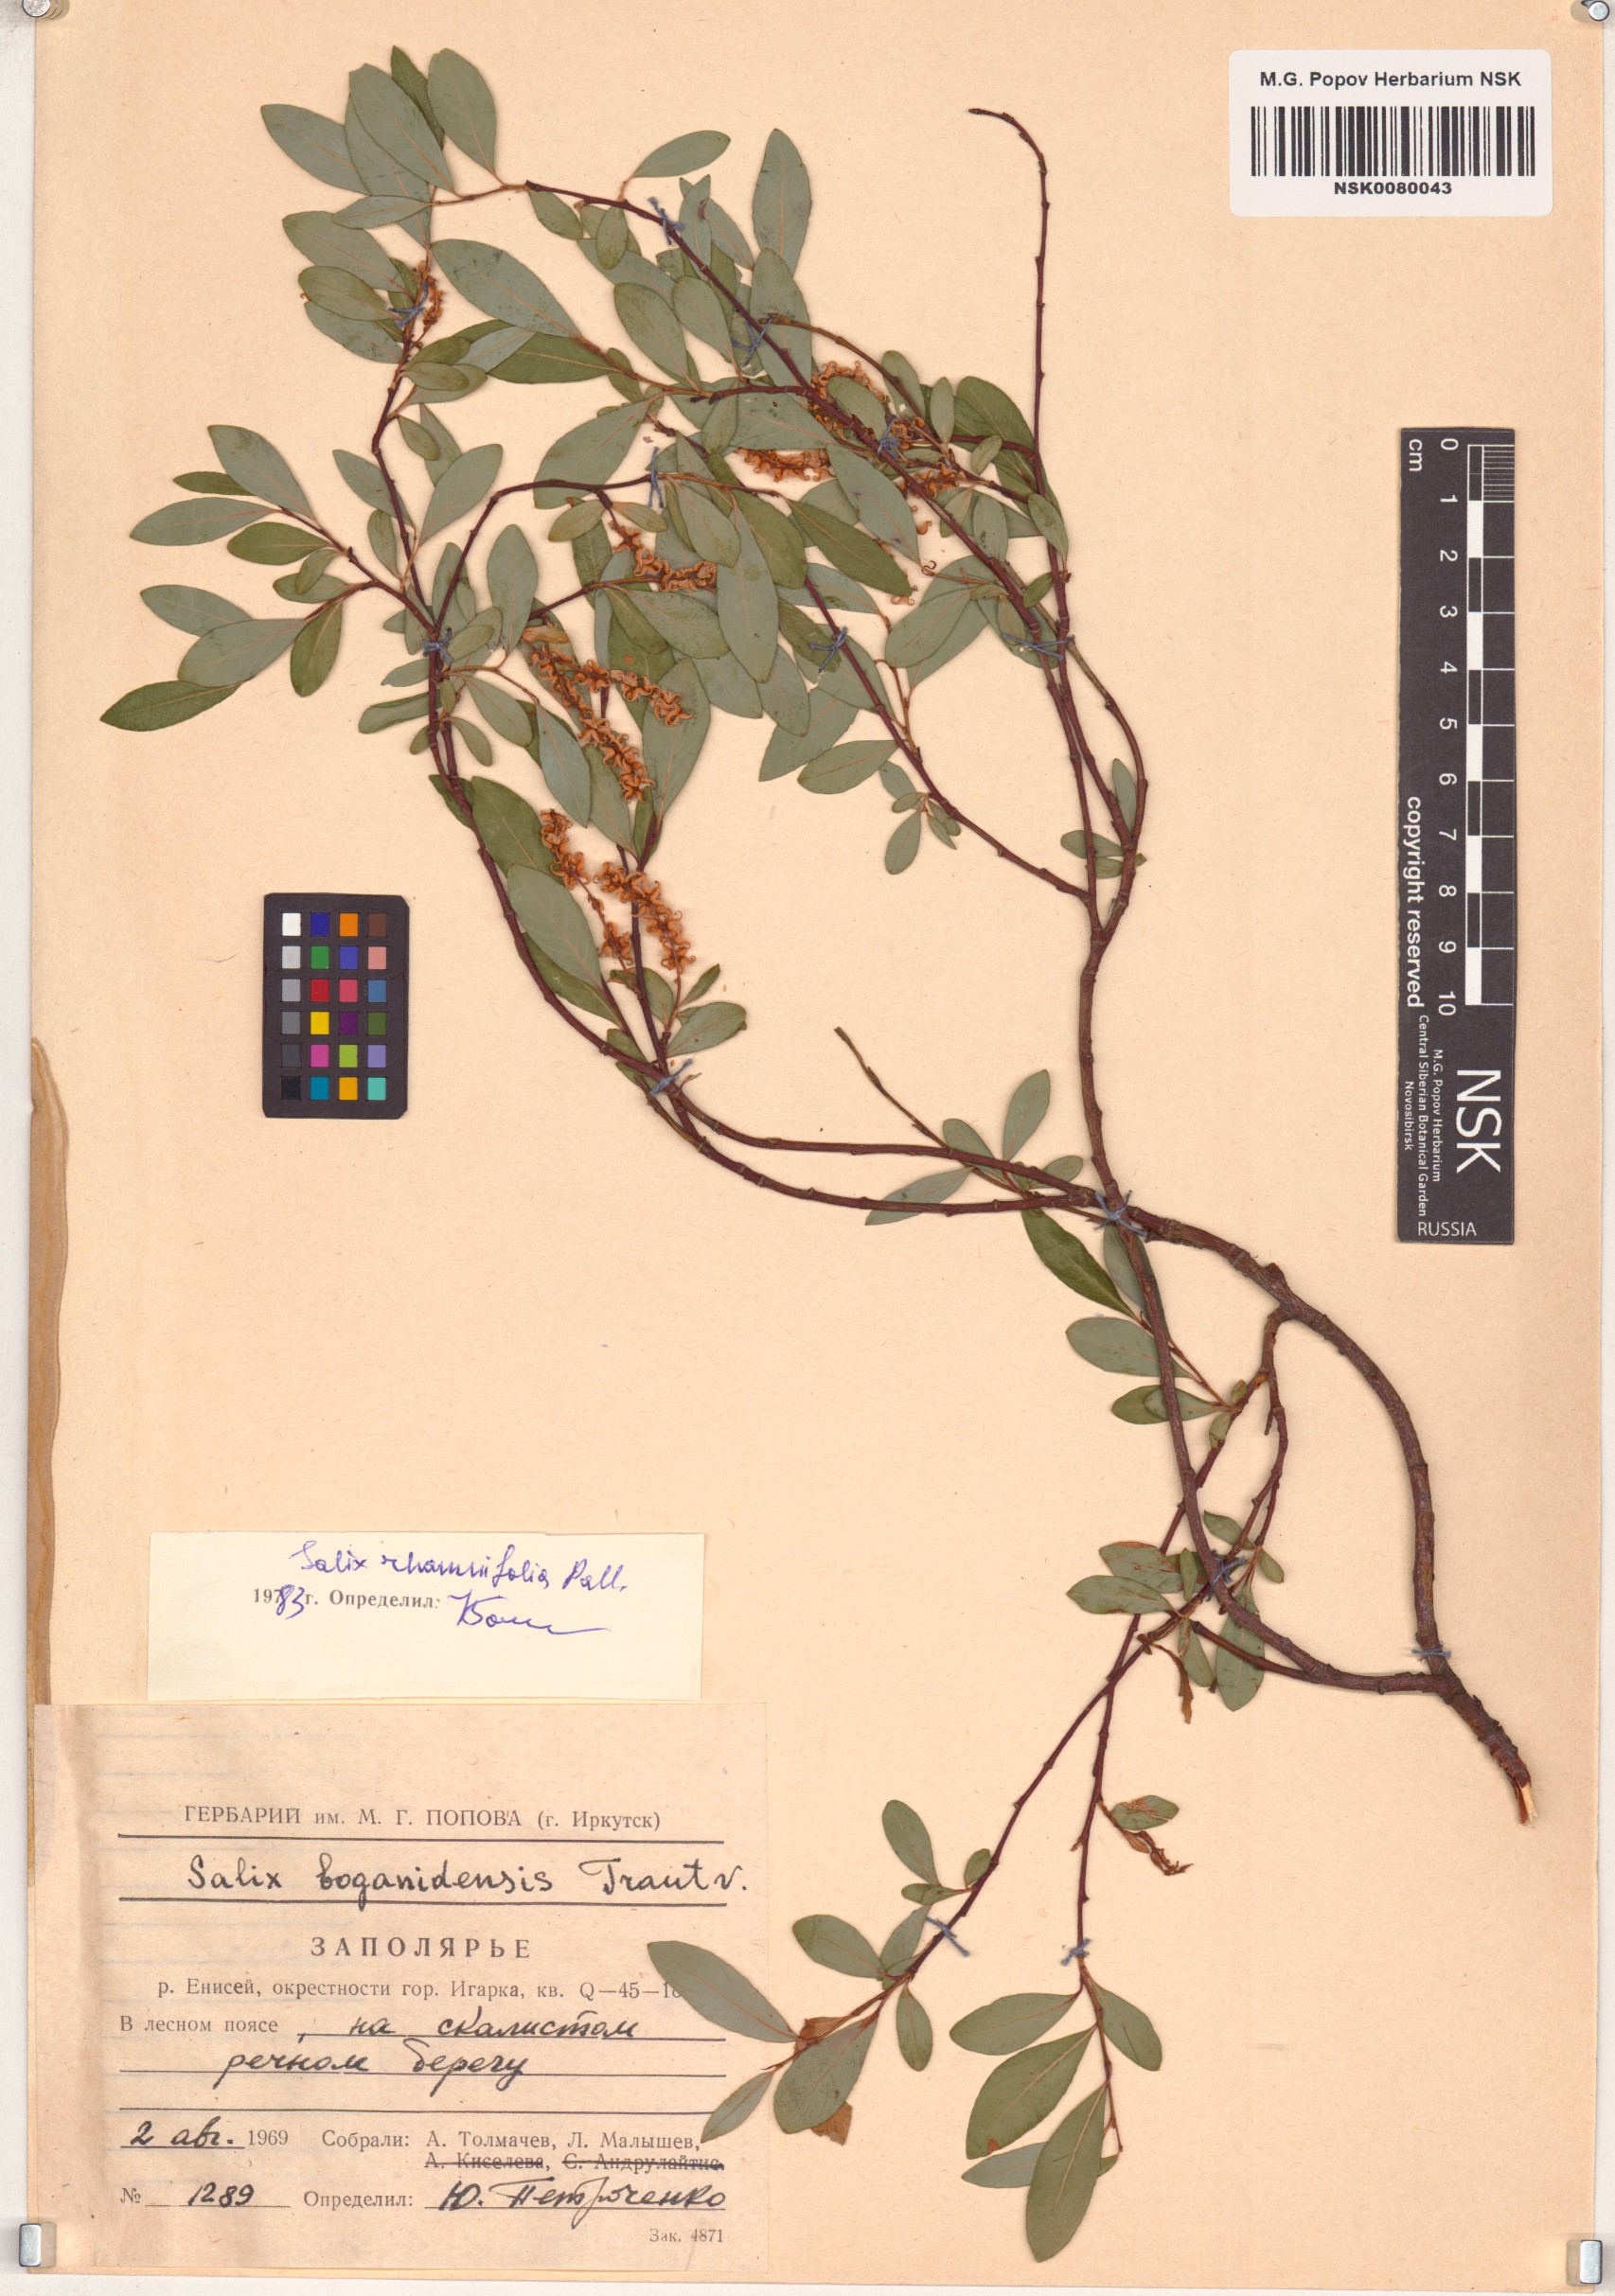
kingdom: Plantae
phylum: Tracheophyta
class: Magnoliopsida
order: Malpighiales
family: Salicaceae
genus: Salix
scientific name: Salix rhamnifolia
